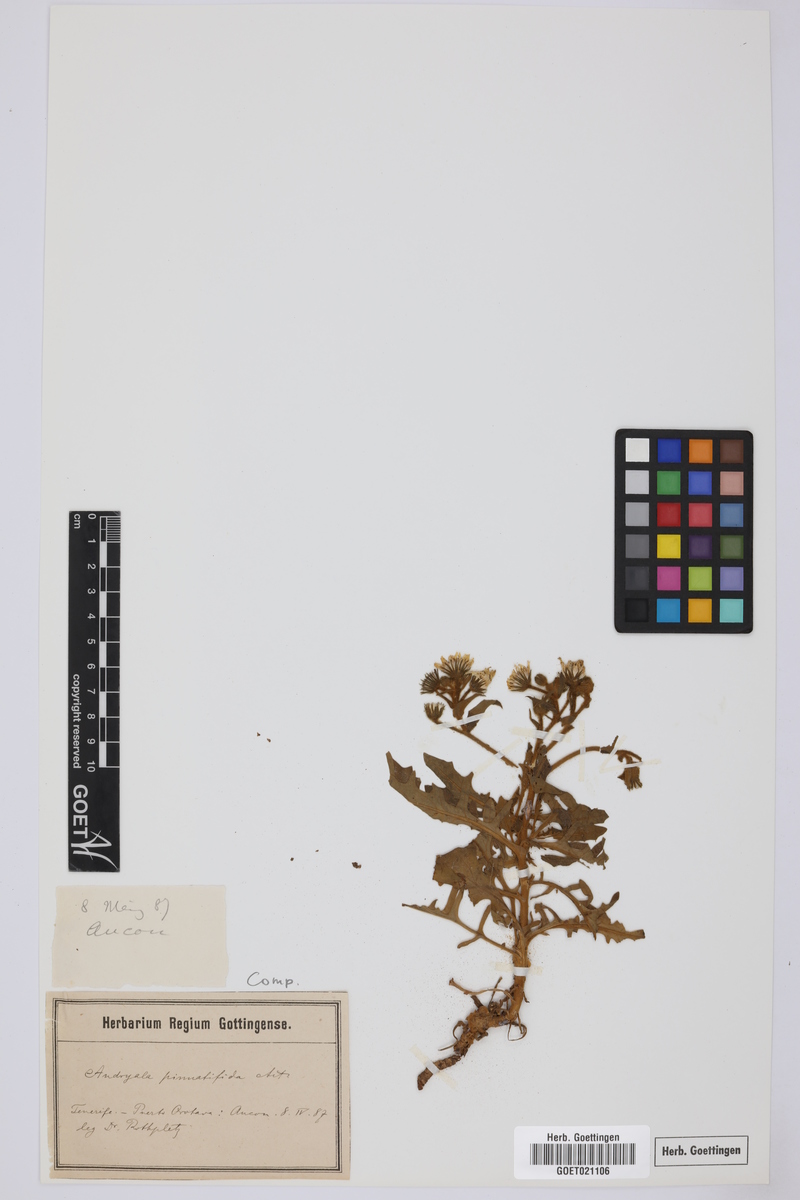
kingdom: Plantae
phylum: Tracheophyta
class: Magnoliopsida
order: Asterales
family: Asteraceae
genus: Andryala
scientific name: Andryala pinnatifida
